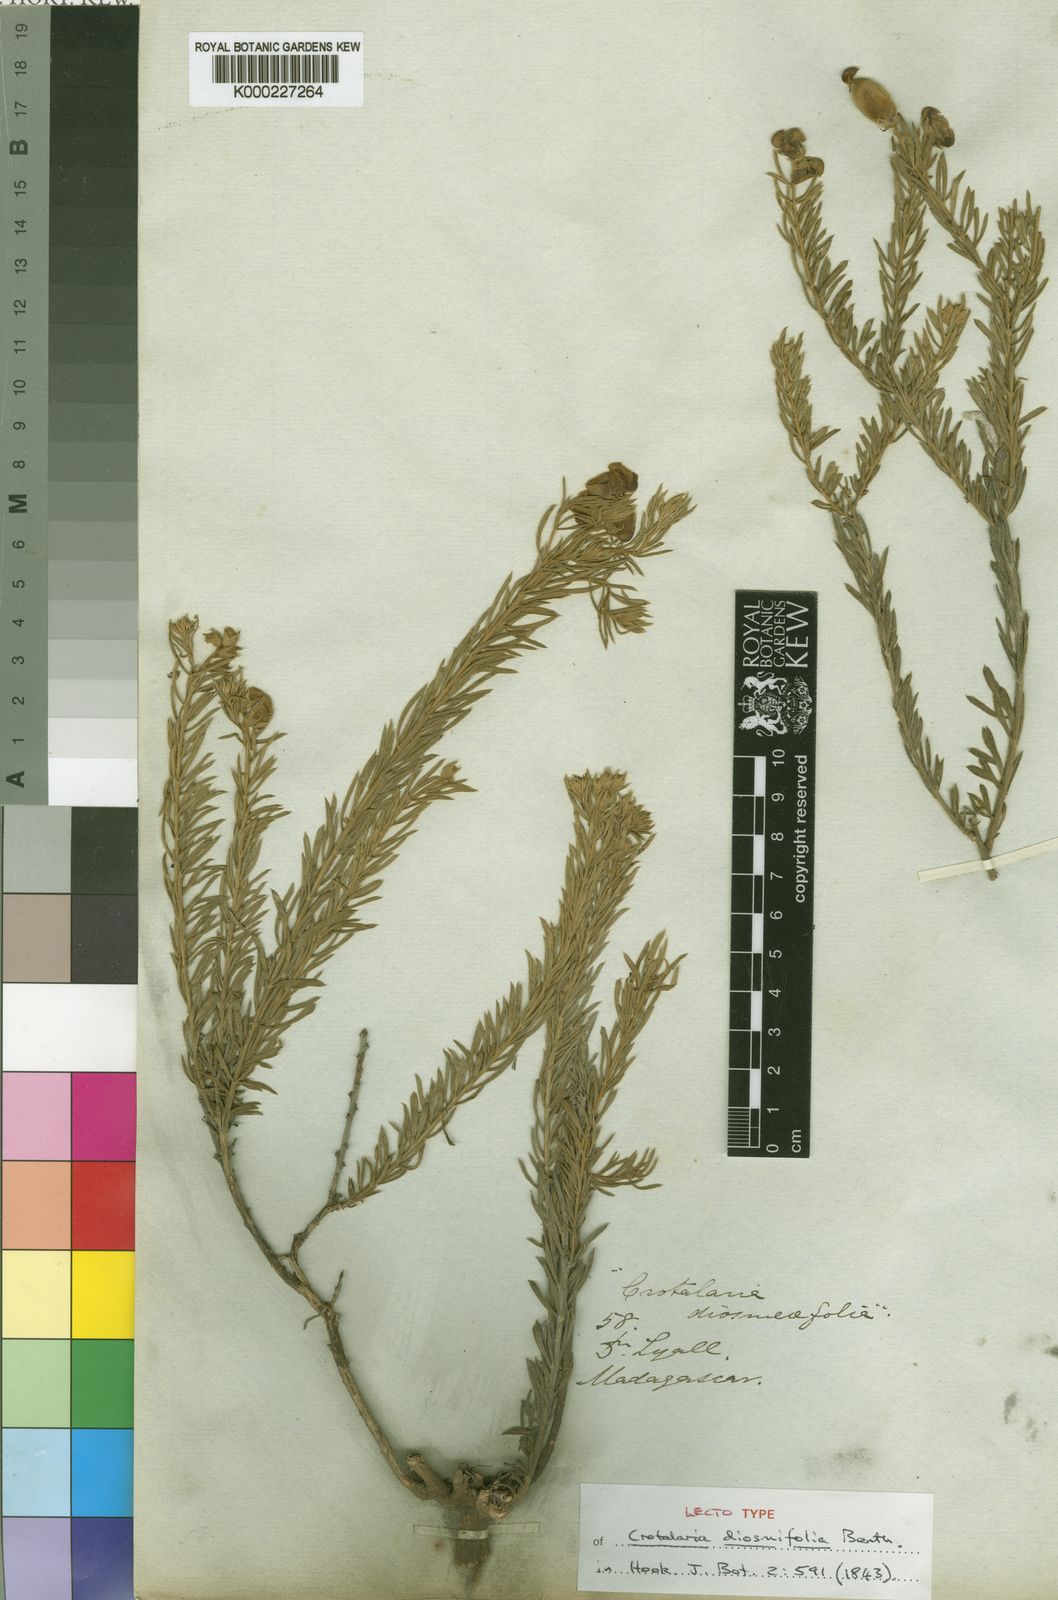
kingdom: Plantae
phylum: Tracheophyta
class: Magnoliopsida
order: Fabales
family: Fabaceae
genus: Crotalaria
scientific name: Crotalaria diosmifolia
